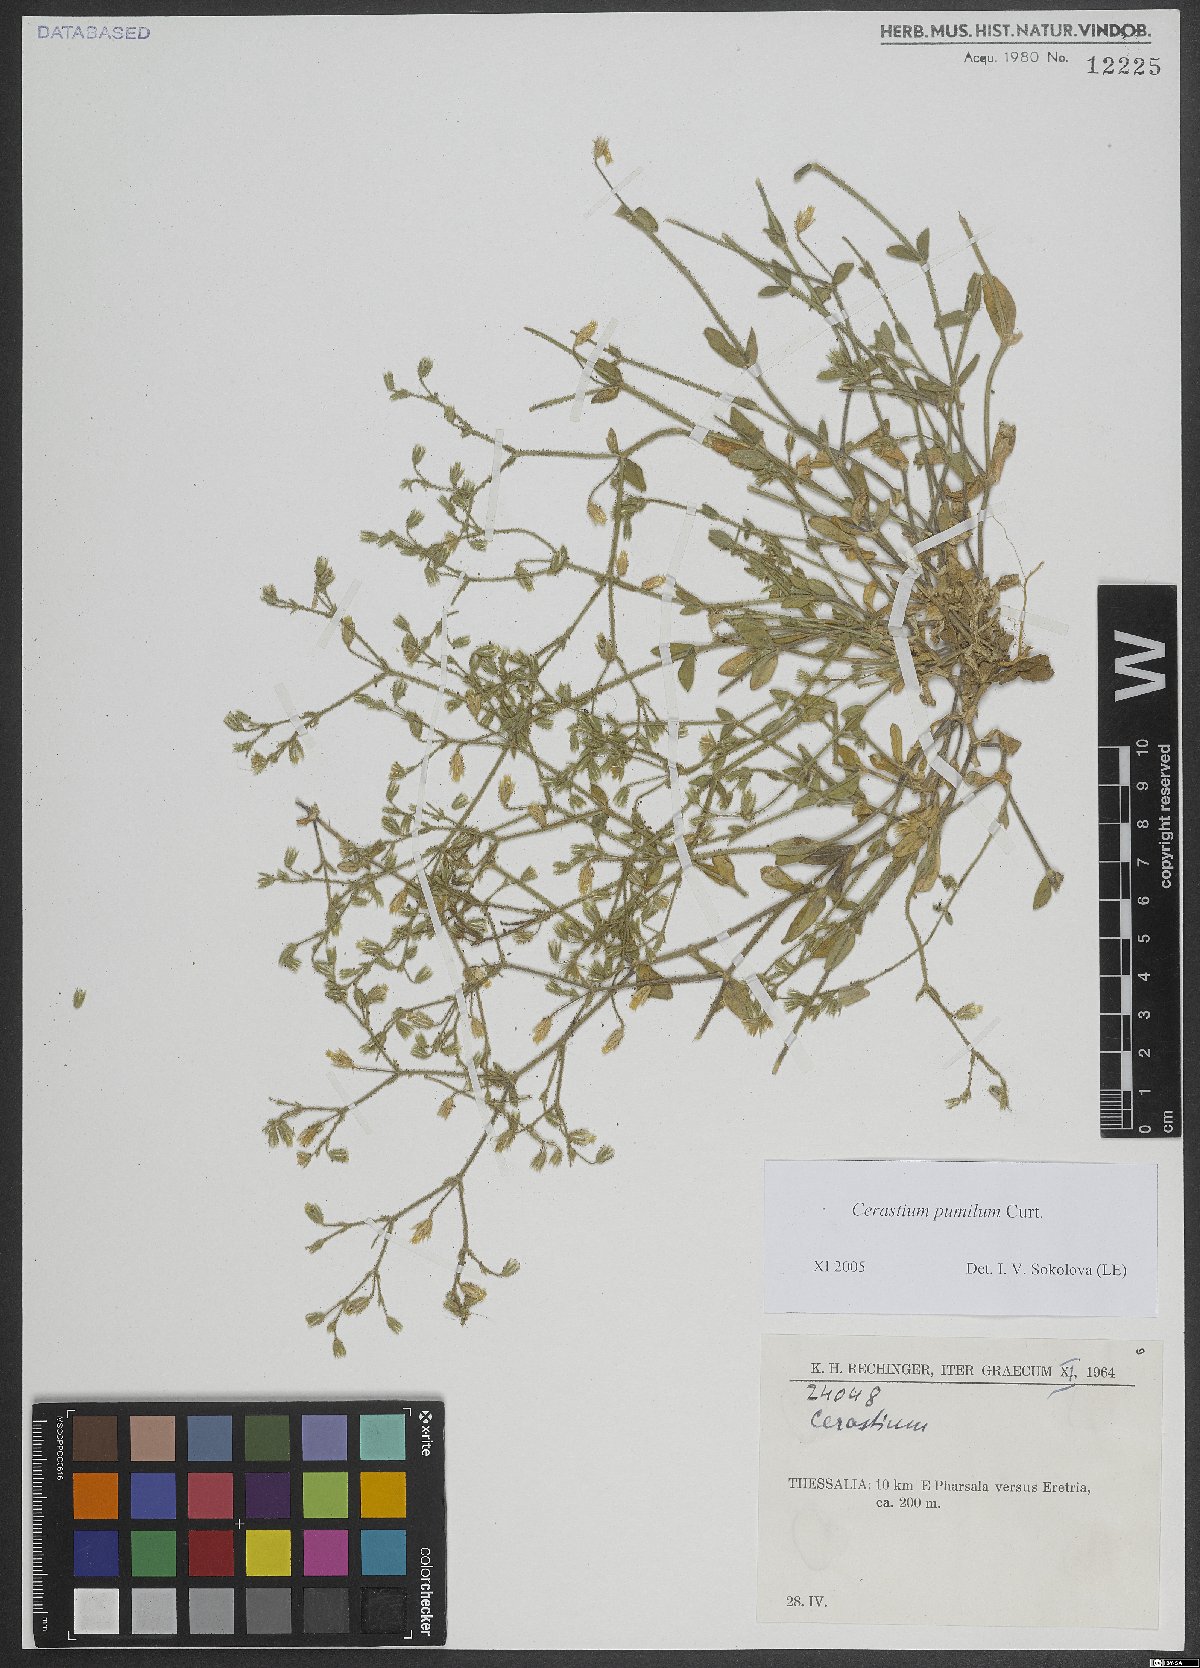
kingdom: Plantae
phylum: Tracheophyta
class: Magnoliopsida
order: Caryophyllales
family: Caryophyllaceae
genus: Cerastium
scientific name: Cerastium holosteoides
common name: Big chickweed
